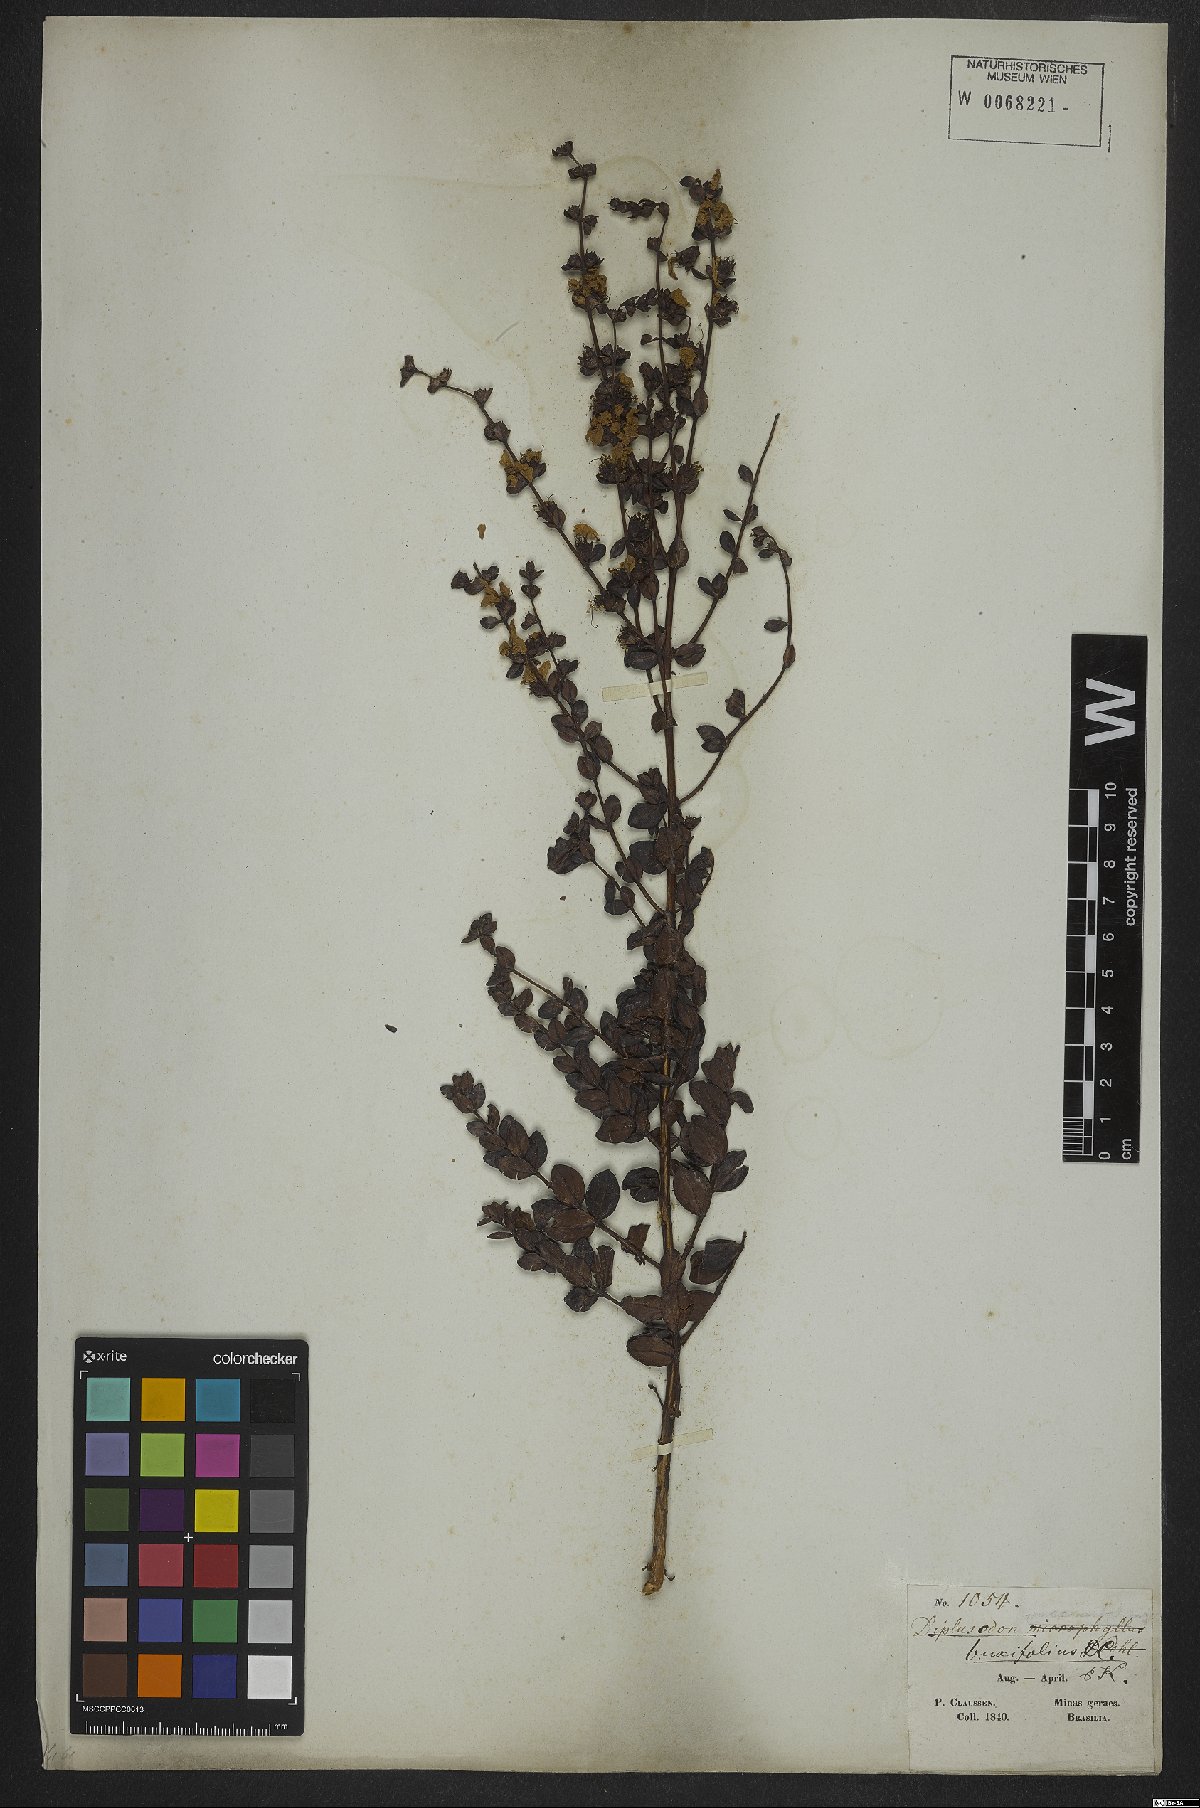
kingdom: Plantae
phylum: Tracheophyta
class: Magnoliopsida
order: Myrtales
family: Lythraceae
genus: Diplusodon
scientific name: Diplusodon buxifolius
